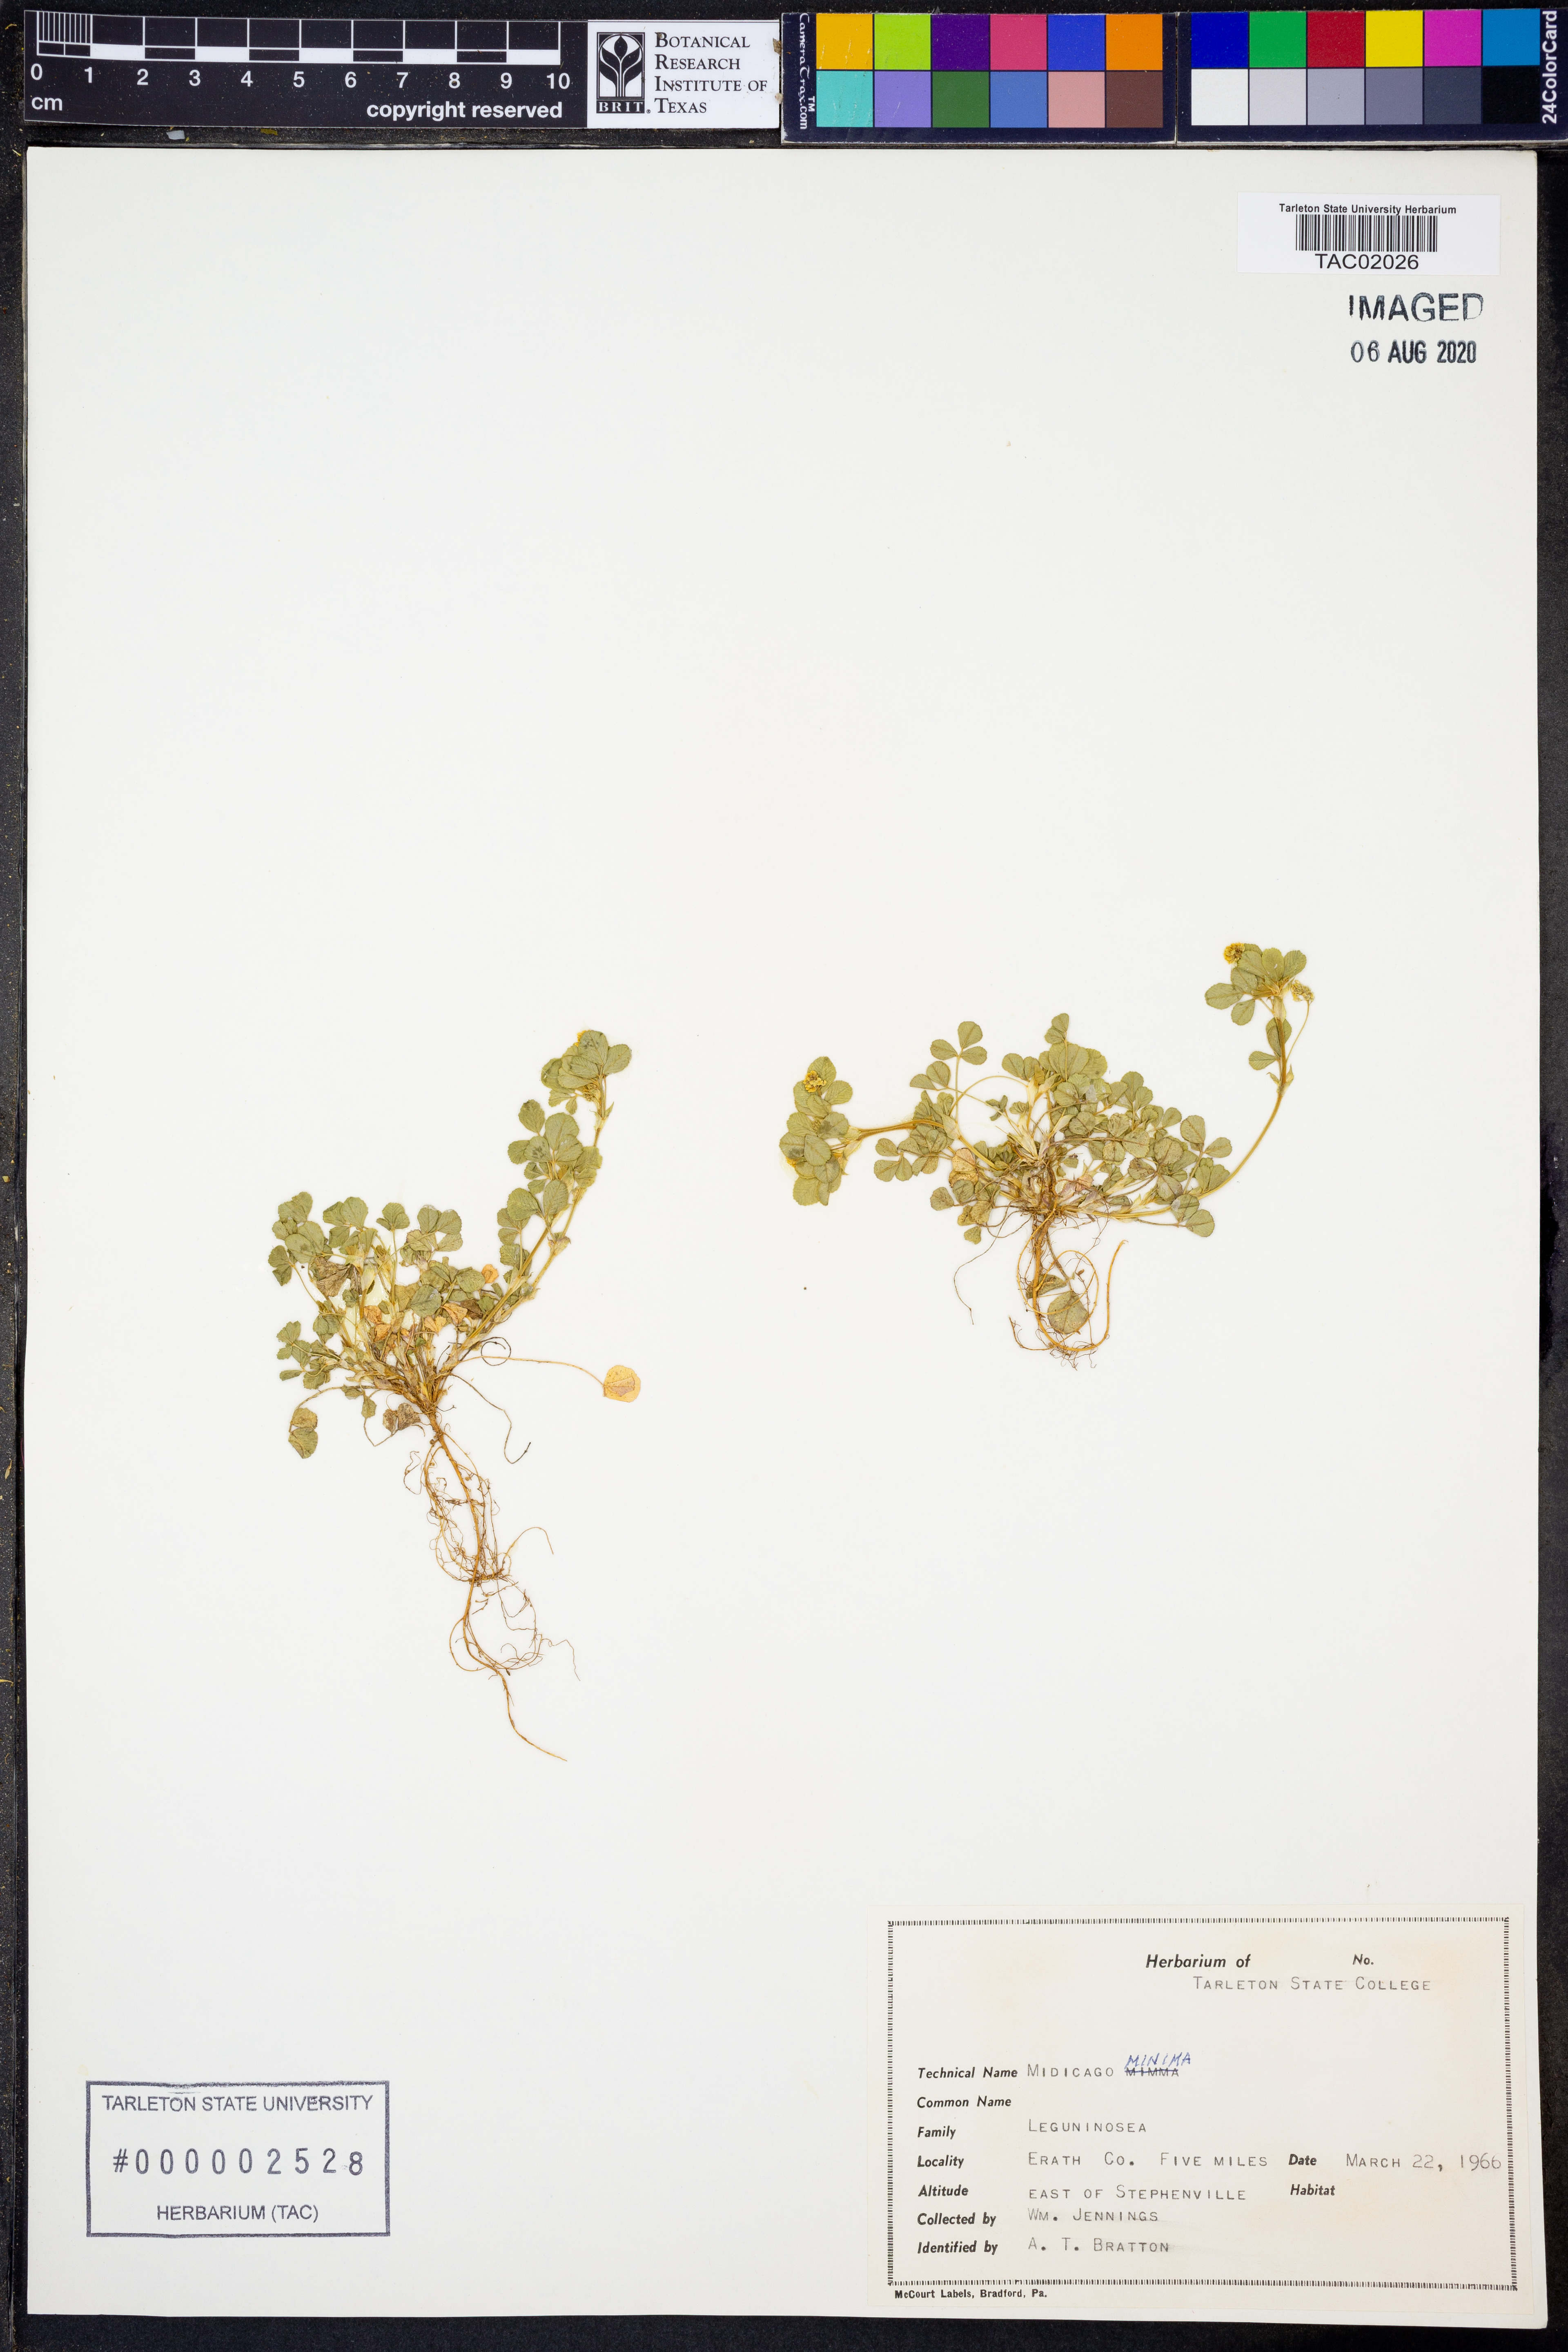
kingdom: Plantae
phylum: Tracheophyta
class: Magnoliopsida
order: Fabales
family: Fabaceae
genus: Medicago
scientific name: Medicago minima
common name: Little bur-clover
